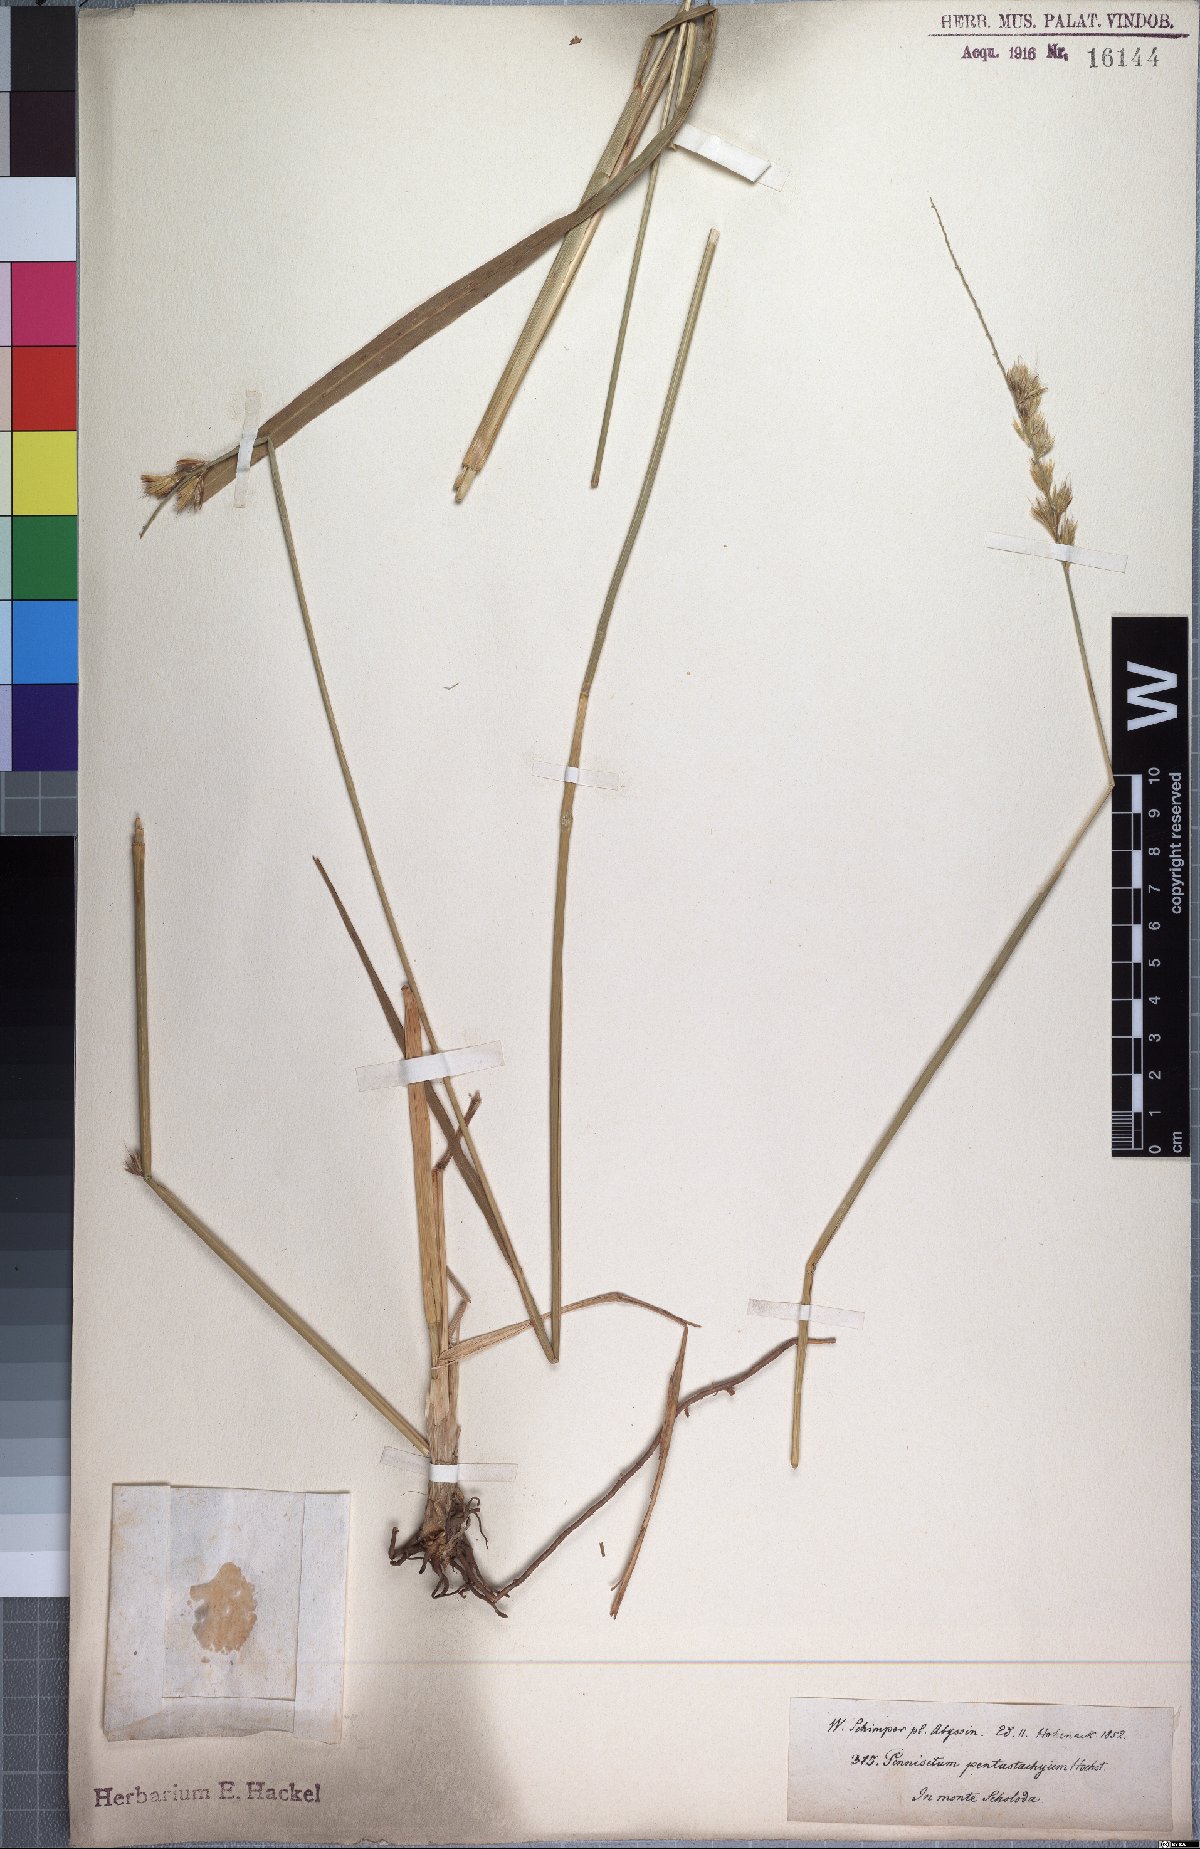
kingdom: Plantae
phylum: Tracheophyta
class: Liliopsida
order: Poales
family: Poaceae
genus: Cenchrus
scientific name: Cenchrus squamulatus
